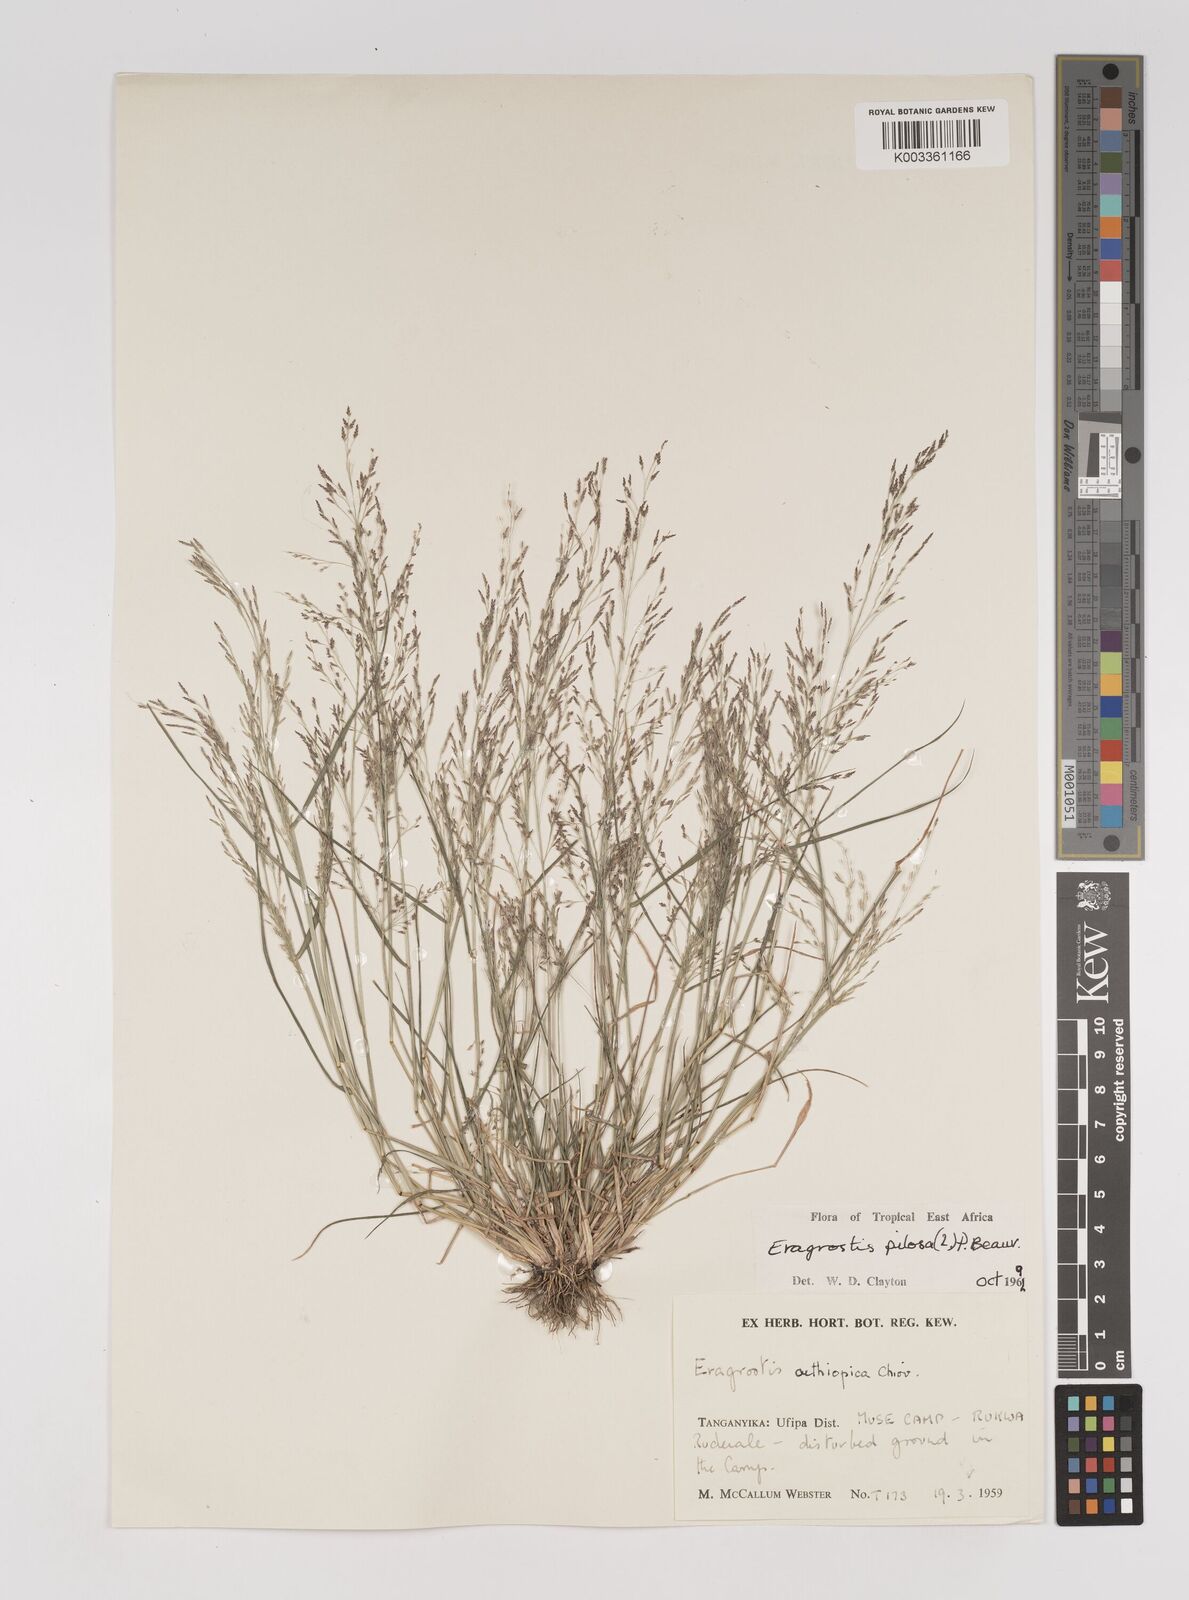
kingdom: Plantae
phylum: Tracheophyta
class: Liliopsida
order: Poales
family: Poaceae
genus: Eragrostis
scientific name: Eragrostis pilosa
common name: Indian lovegrass
